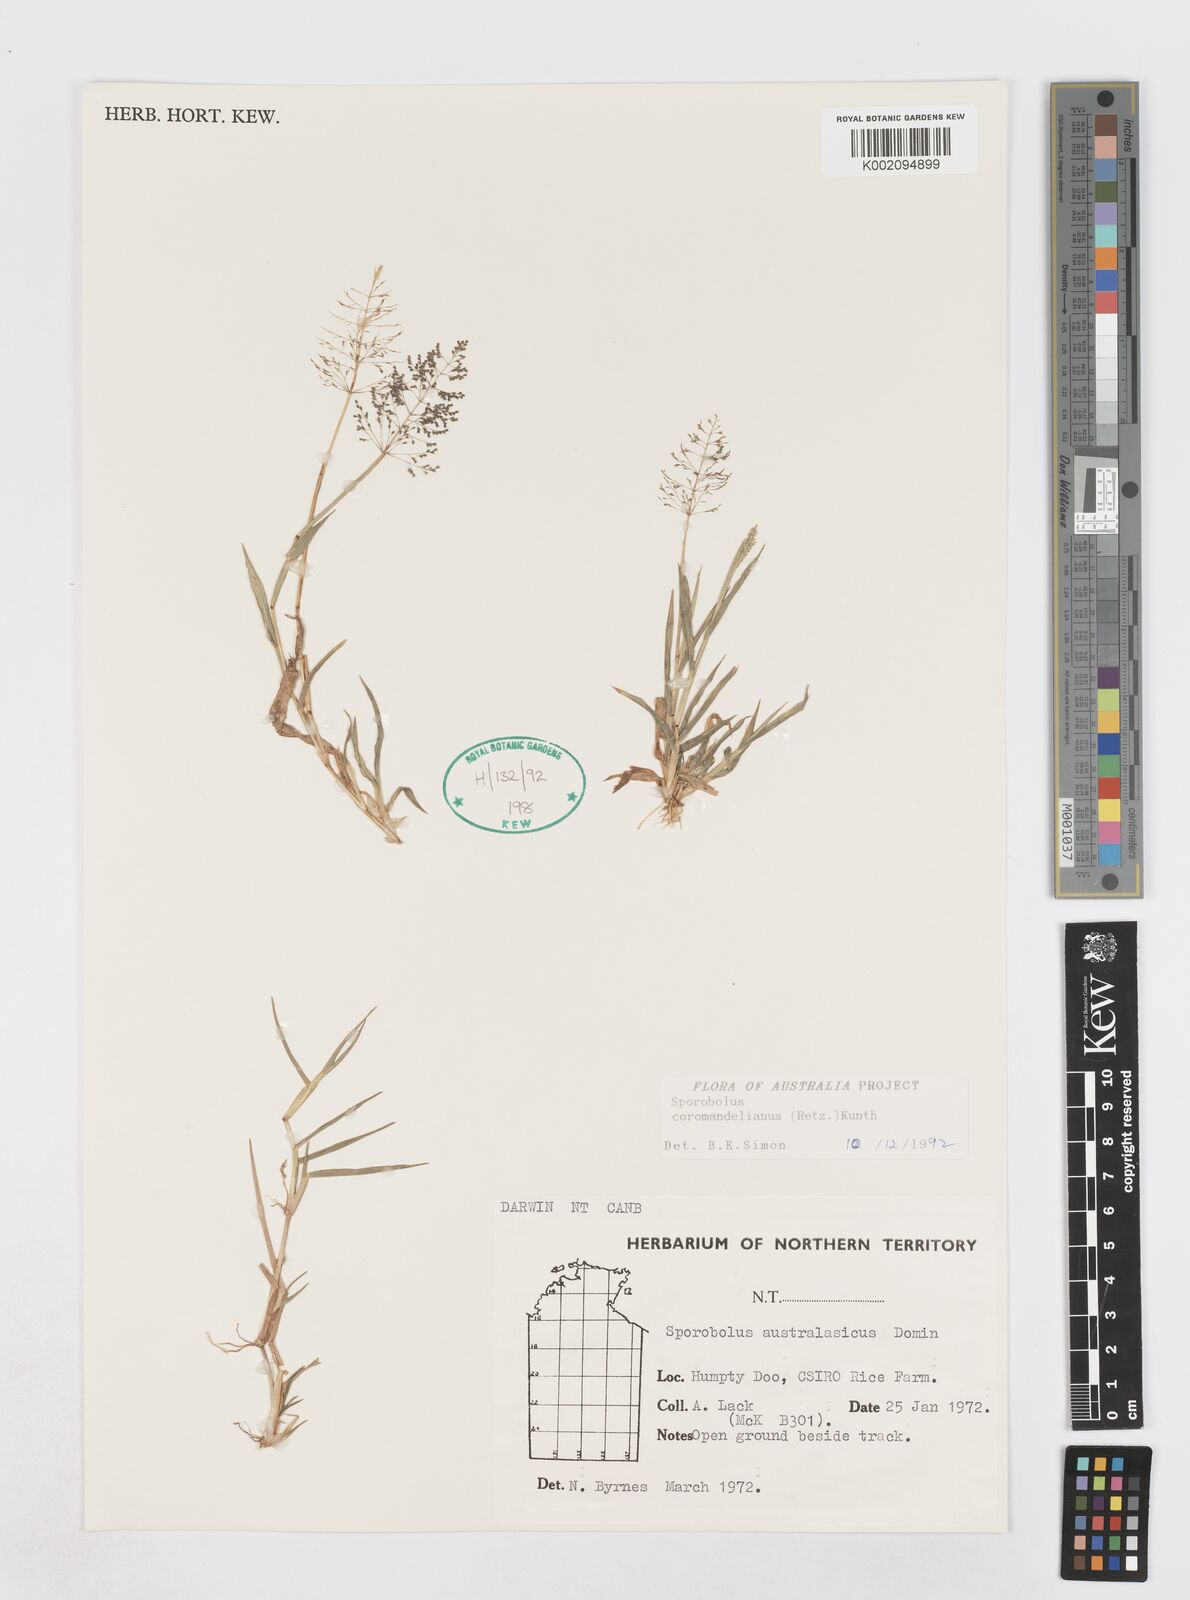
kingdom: Plantae
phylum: Tracheophyta
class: Liliopsida
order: Poales
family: Poaceae
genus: Sporobolus
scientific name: Sporobolus coromandelianus
